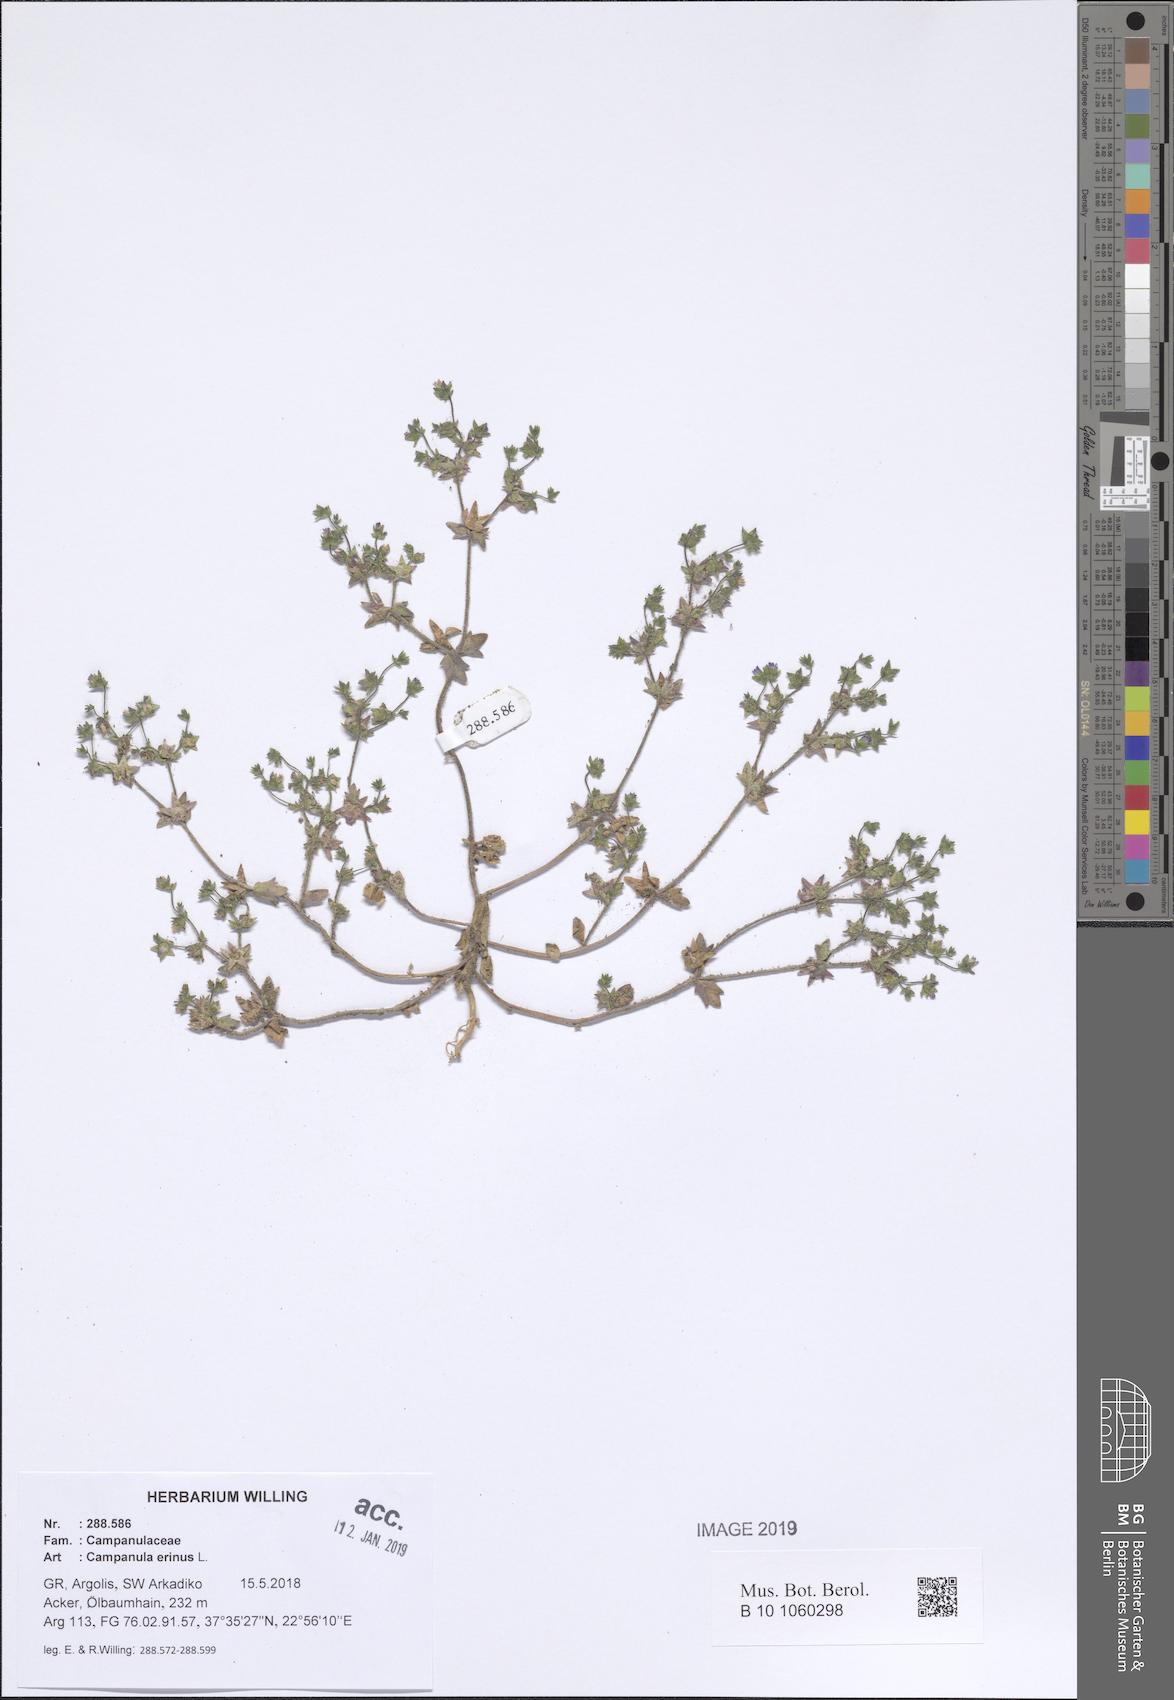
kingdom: Plantae
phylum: Tracheophyta
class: Magnoliopsida
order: Asterales
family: Campanulaceae
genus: Campanula
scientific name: Campanula erinus
